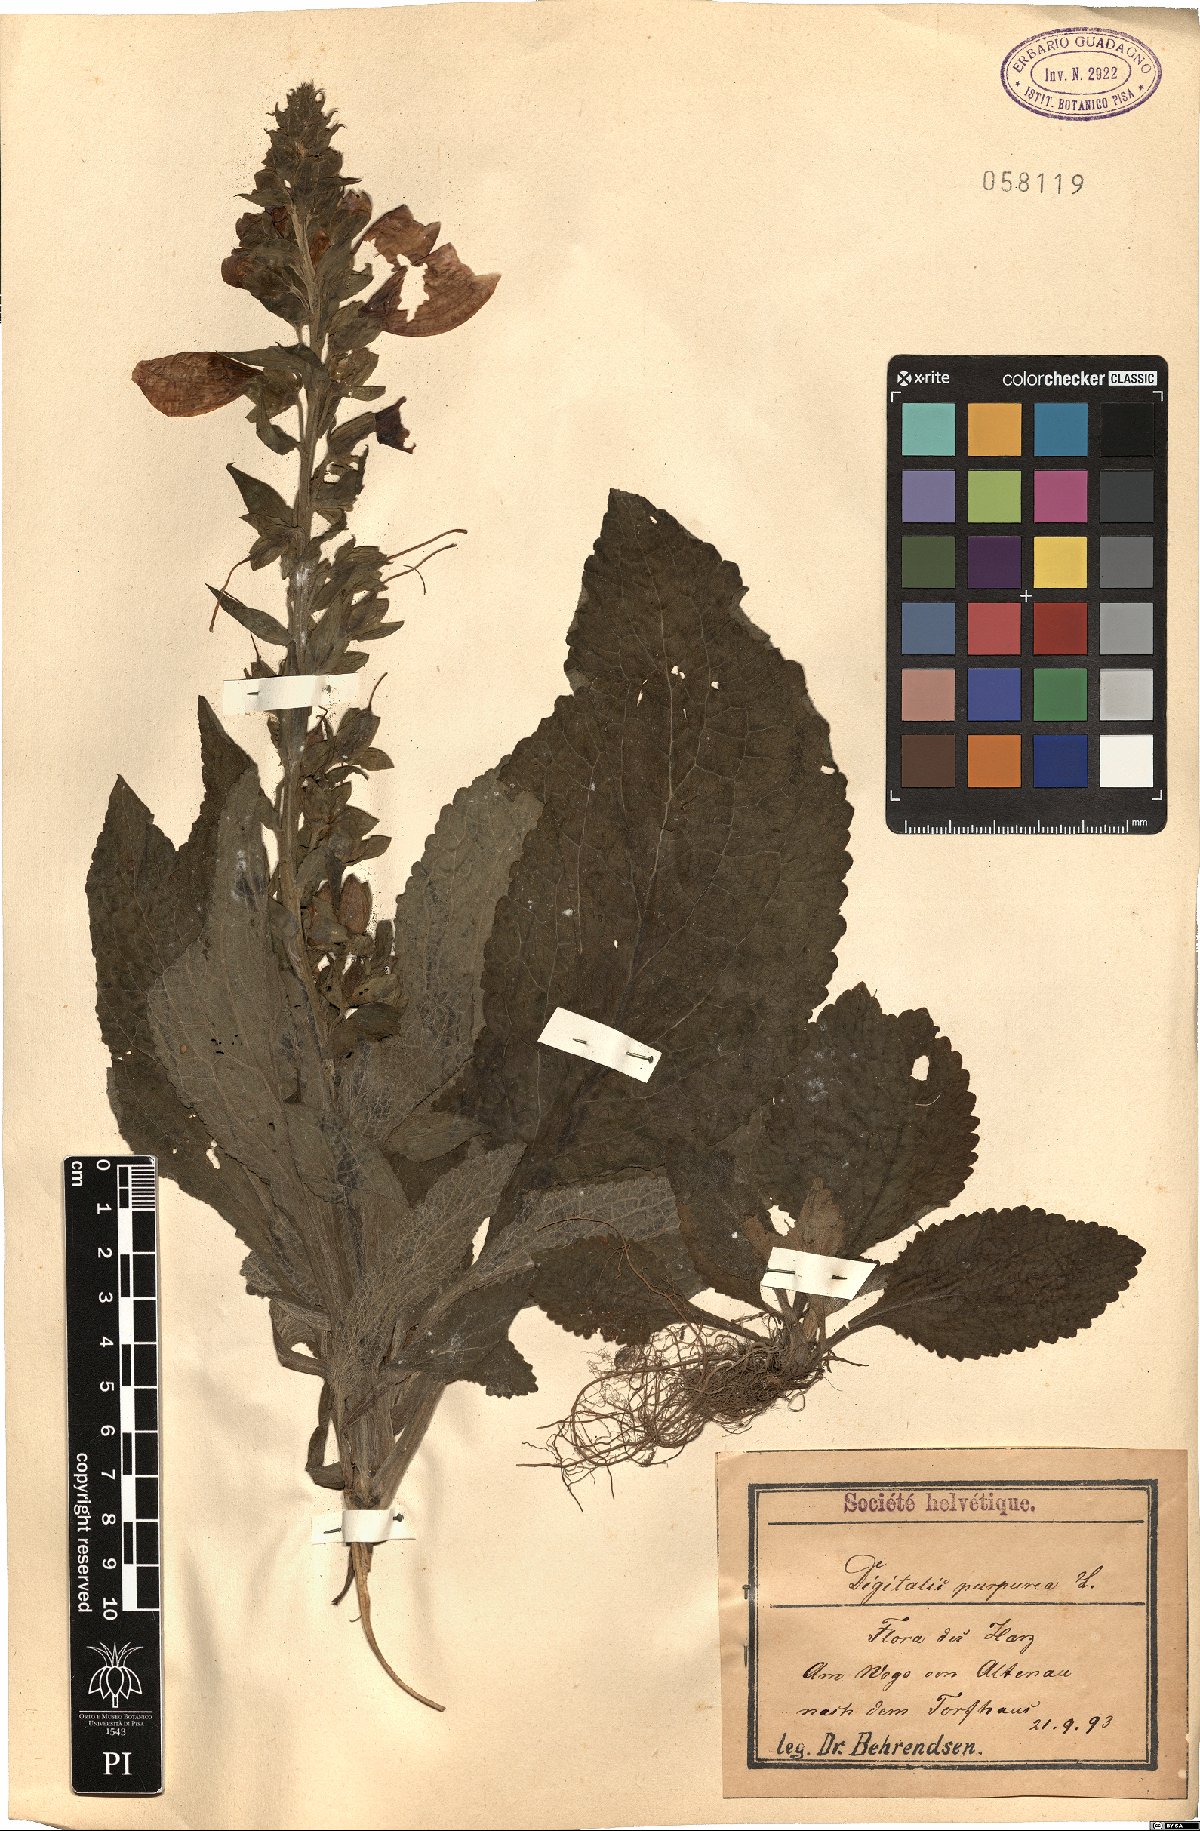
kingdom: Plantae
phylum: Tracheophyta
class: Magnoliopsida
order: Lamiales
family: Plantaginaceae
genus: Digitalis
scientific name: Digitalis purpurea
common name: Foxglove
